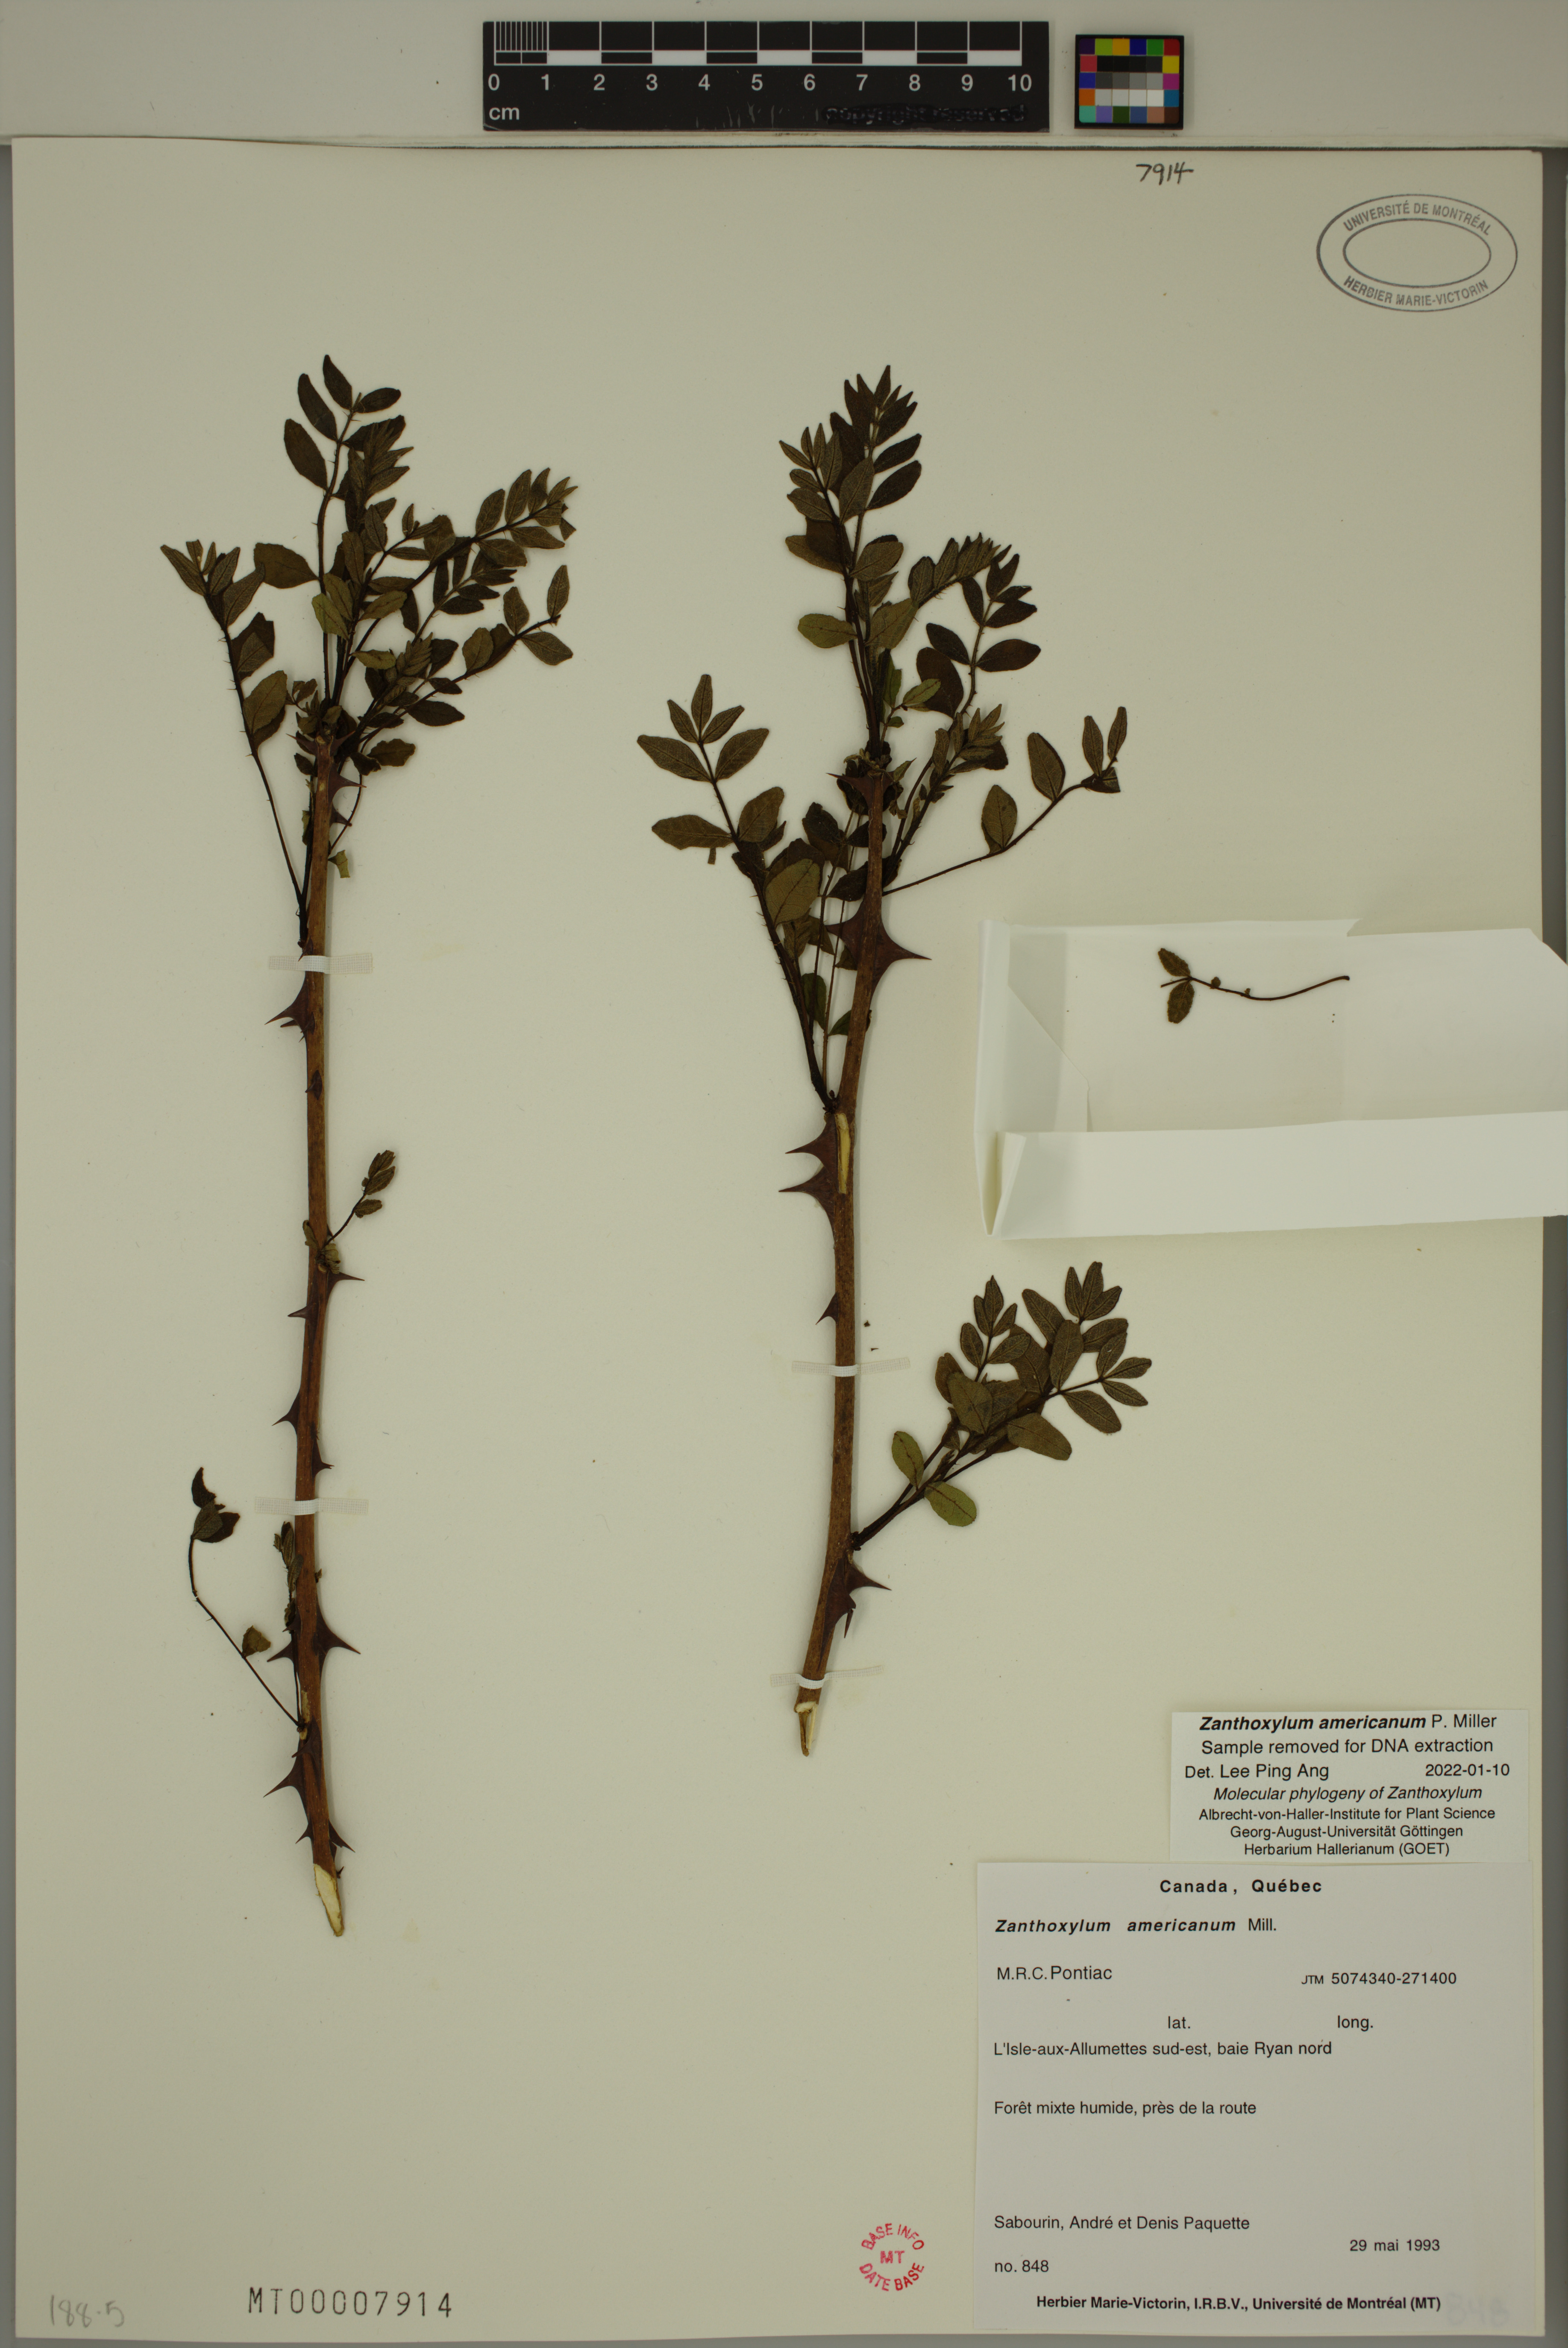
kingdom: Plantae
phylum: Tracheophyta
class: Magnoliopsida
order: Sapindales
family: Rutaceae
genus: Zanthoxylum
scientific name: Zanthoxylum americanum
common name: Northern prickly-ash
